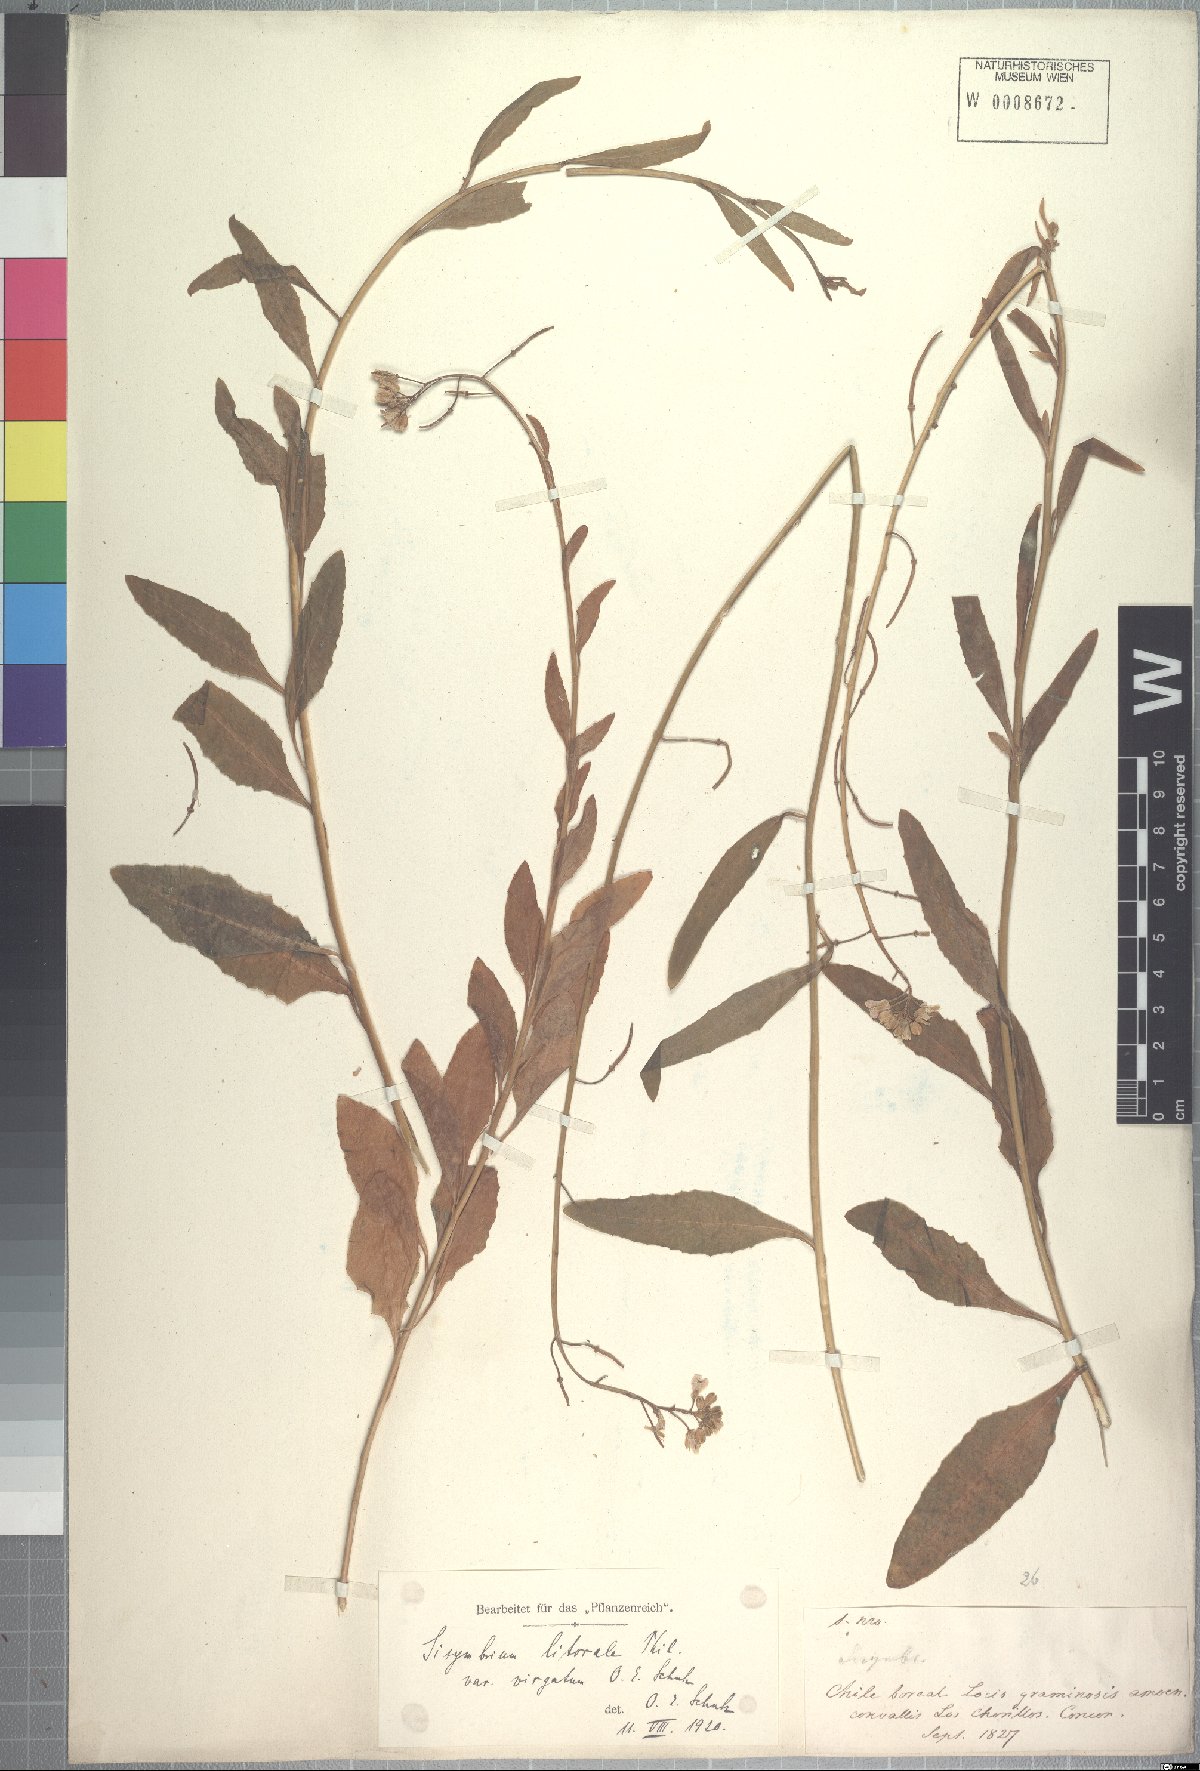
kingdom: Plantae
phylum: Tracheophyta
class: Magnoliopsida
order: Brassicales
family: Brassicaceae
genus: Polypsecadium
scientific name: Polypsecadium litorale
